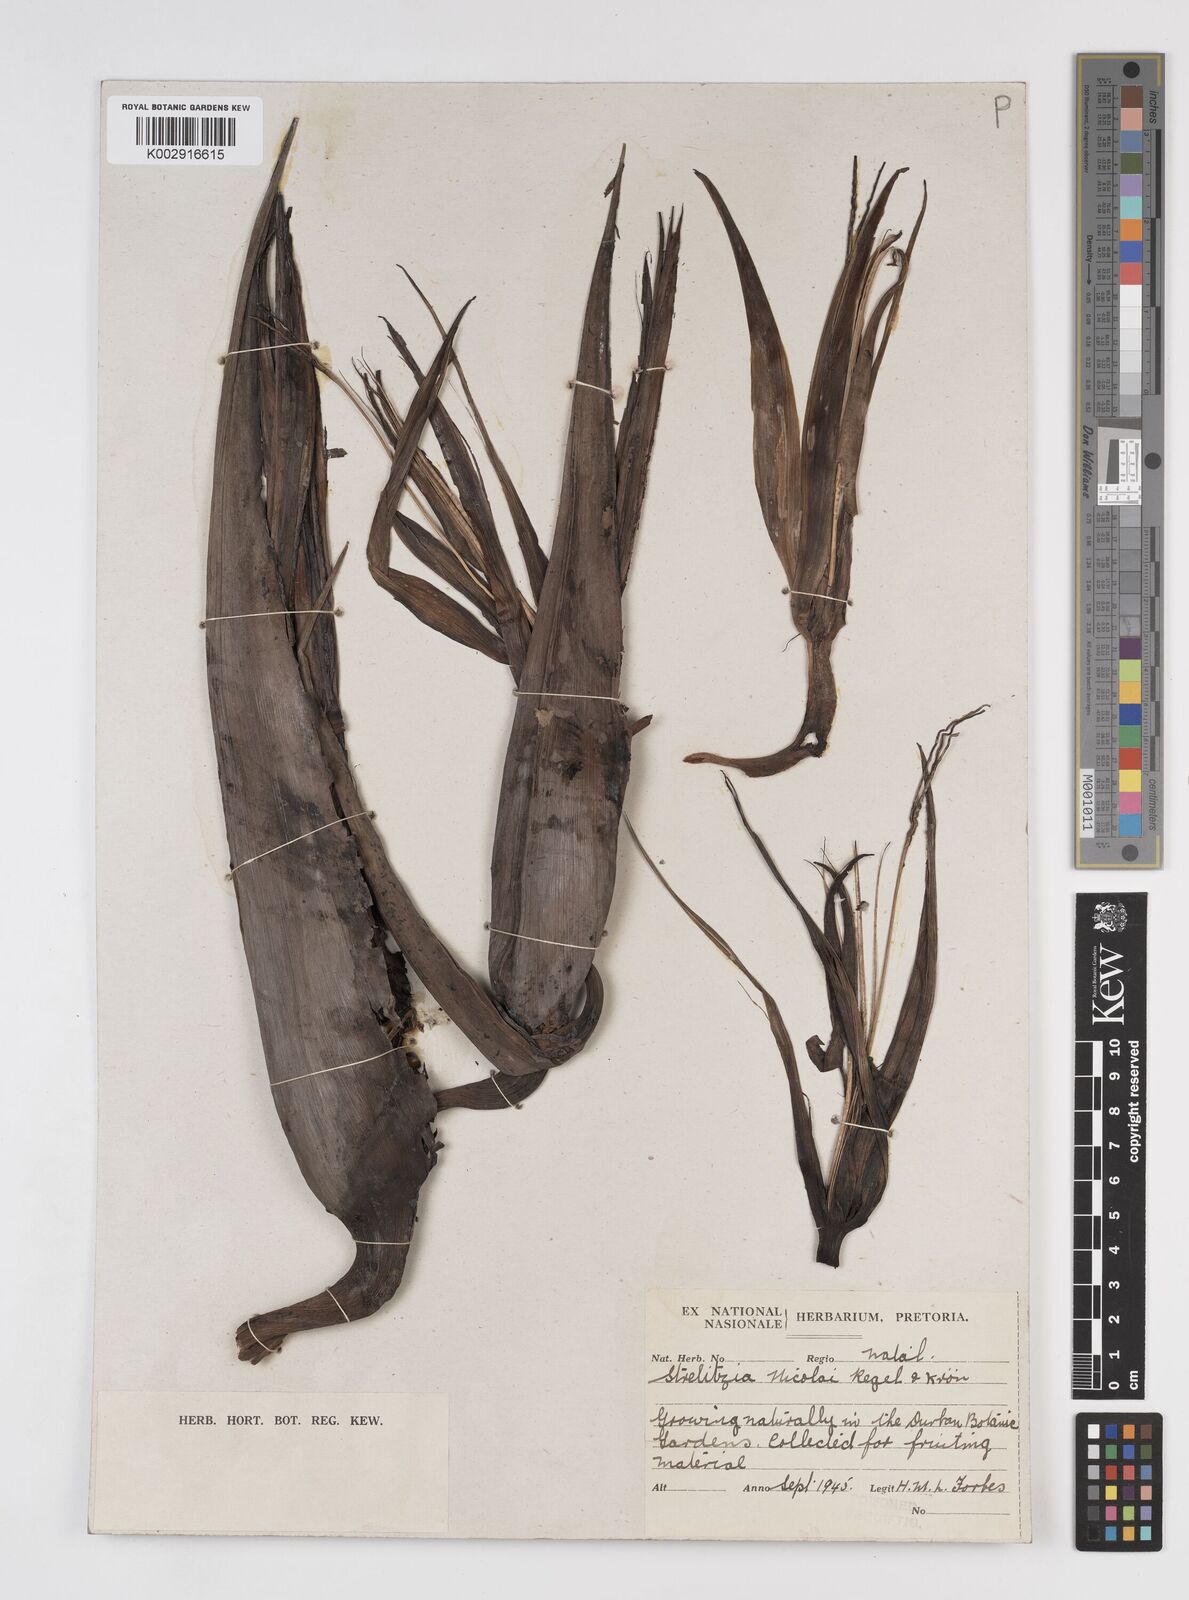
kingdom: Plantae
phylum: Tracheophyta
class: Liliopsida
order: Zingiberales
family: Strelitziaceae
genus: Strelitzia
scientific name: Strelitzia nicolai
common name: Bird-of-paradise tree
